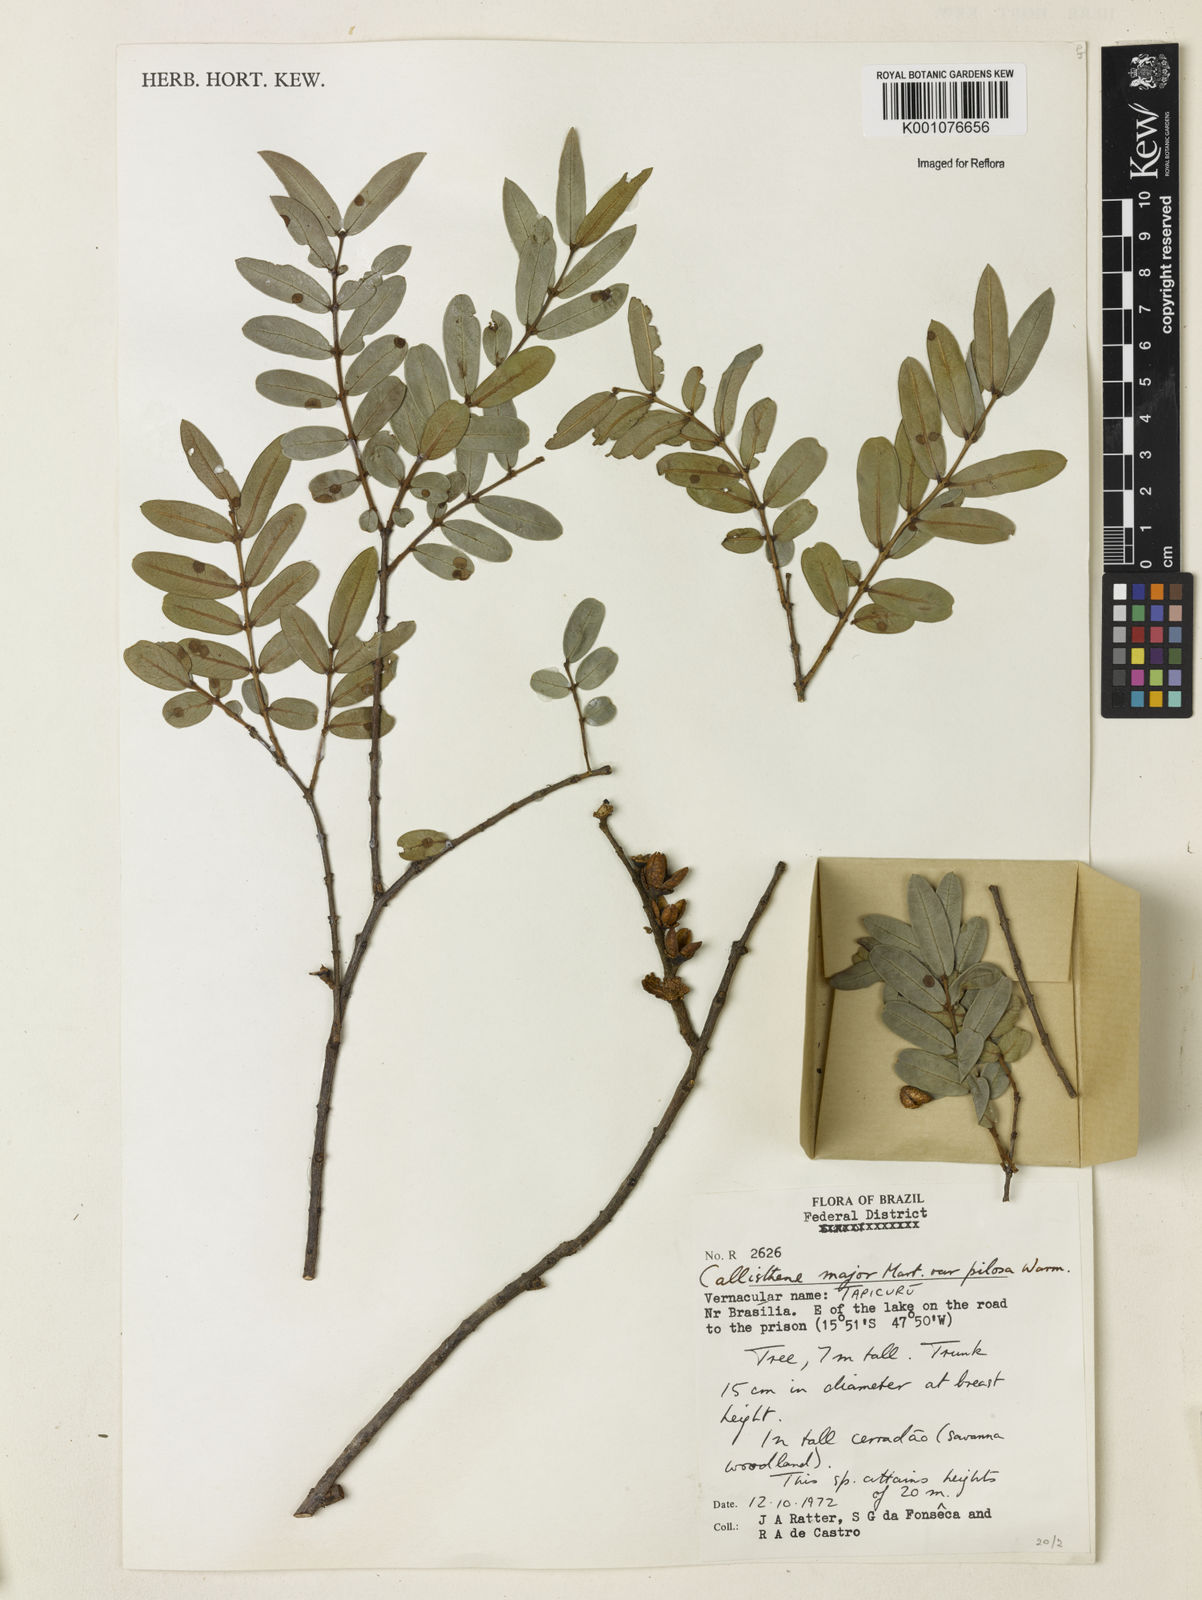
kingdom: Plantae
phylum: Tracheophyta
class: Magnoliopsida
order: Myrtales
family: Vochysiaceae
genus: Callisthene
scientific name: Callisthene major
